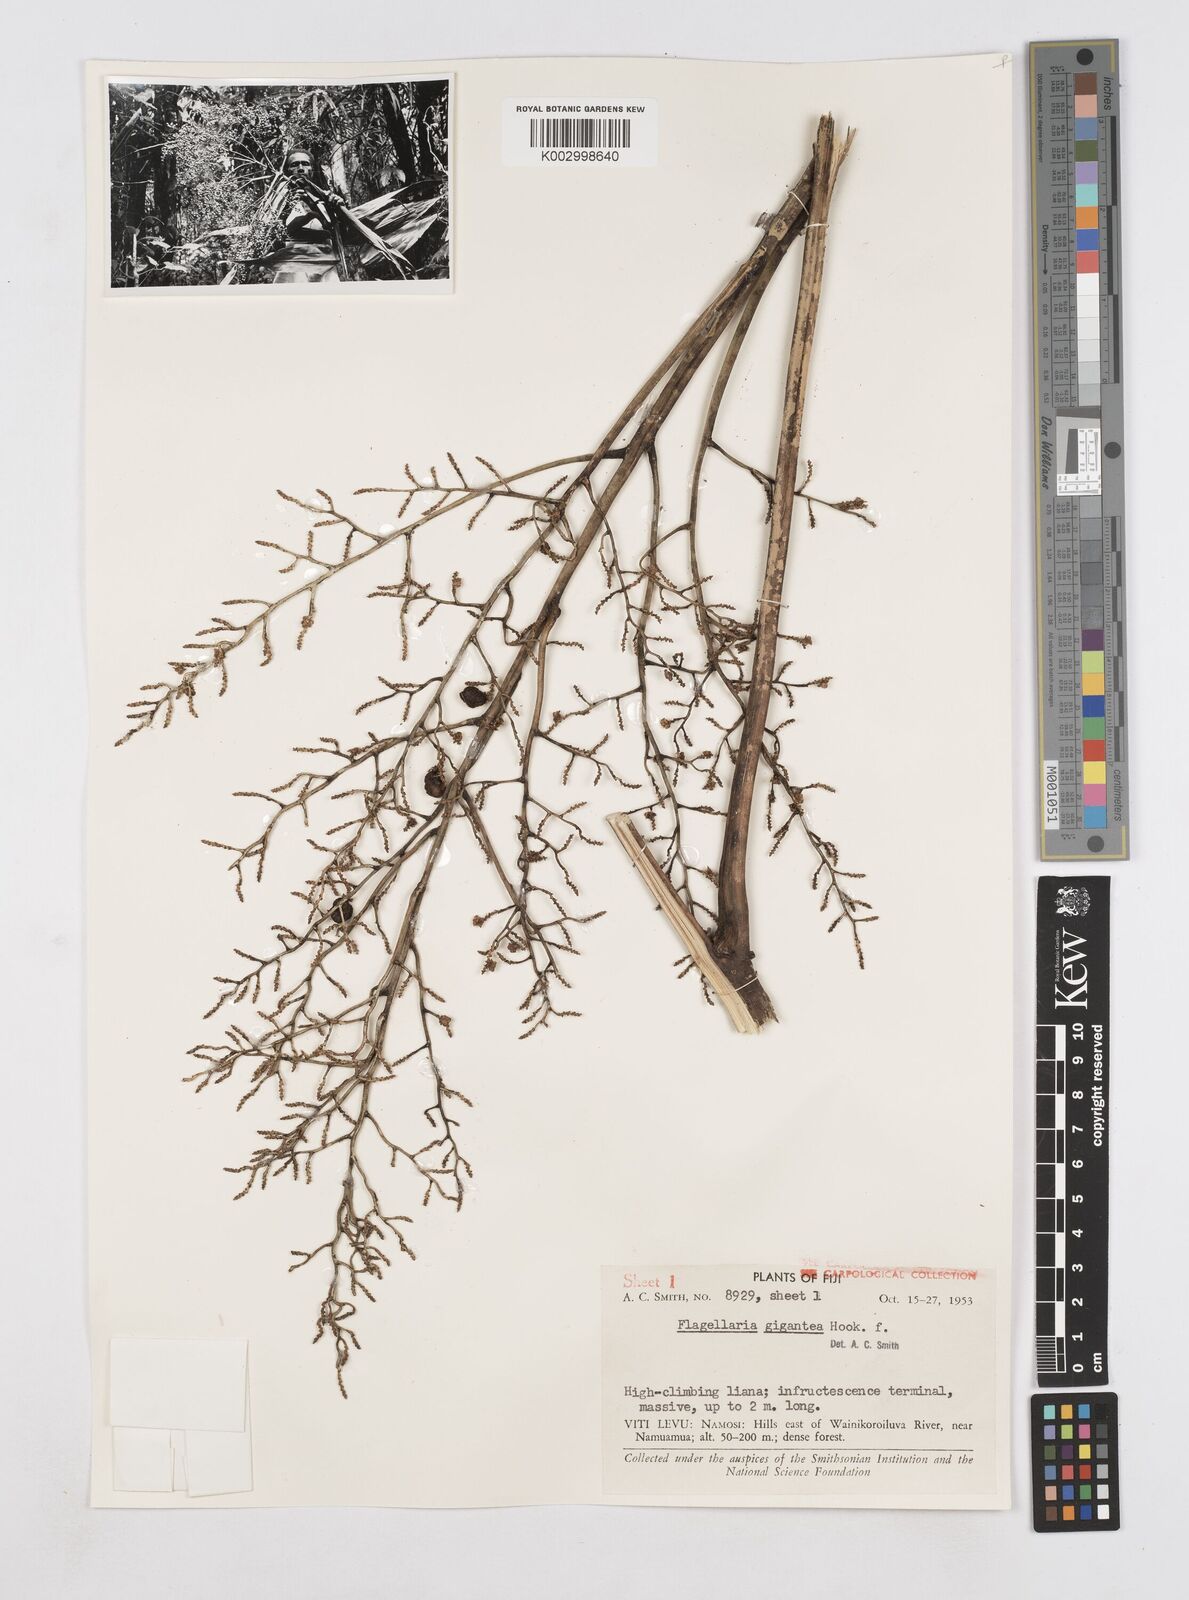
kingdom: Plantae
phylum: Tracheophyta
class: Liliopsida
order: Poales
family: Flagellariaceae
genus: Flagellaria
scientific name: Flagellaria gigantea
